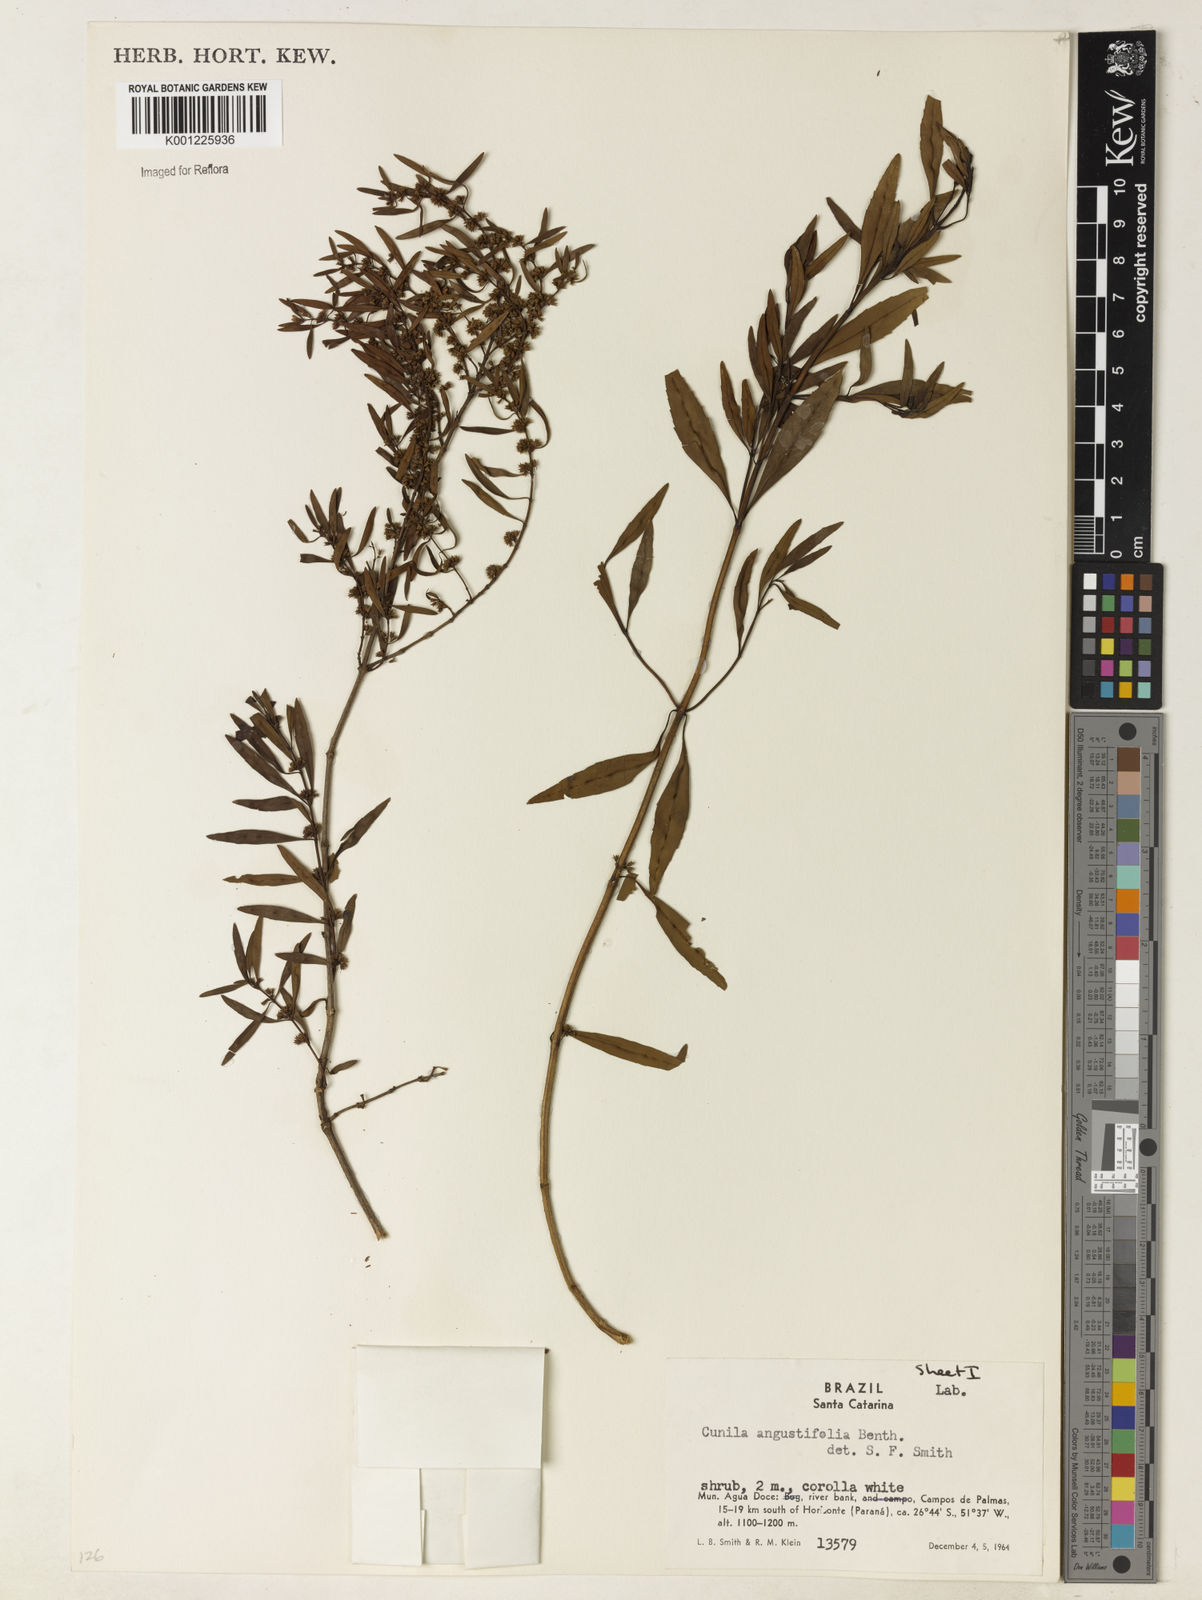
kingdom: Plantae
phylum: Tracheophyta
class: Magnoliopsida
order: Lamiales
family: Lamiaceae
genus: Cunila
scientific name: Cunila angustifolia
